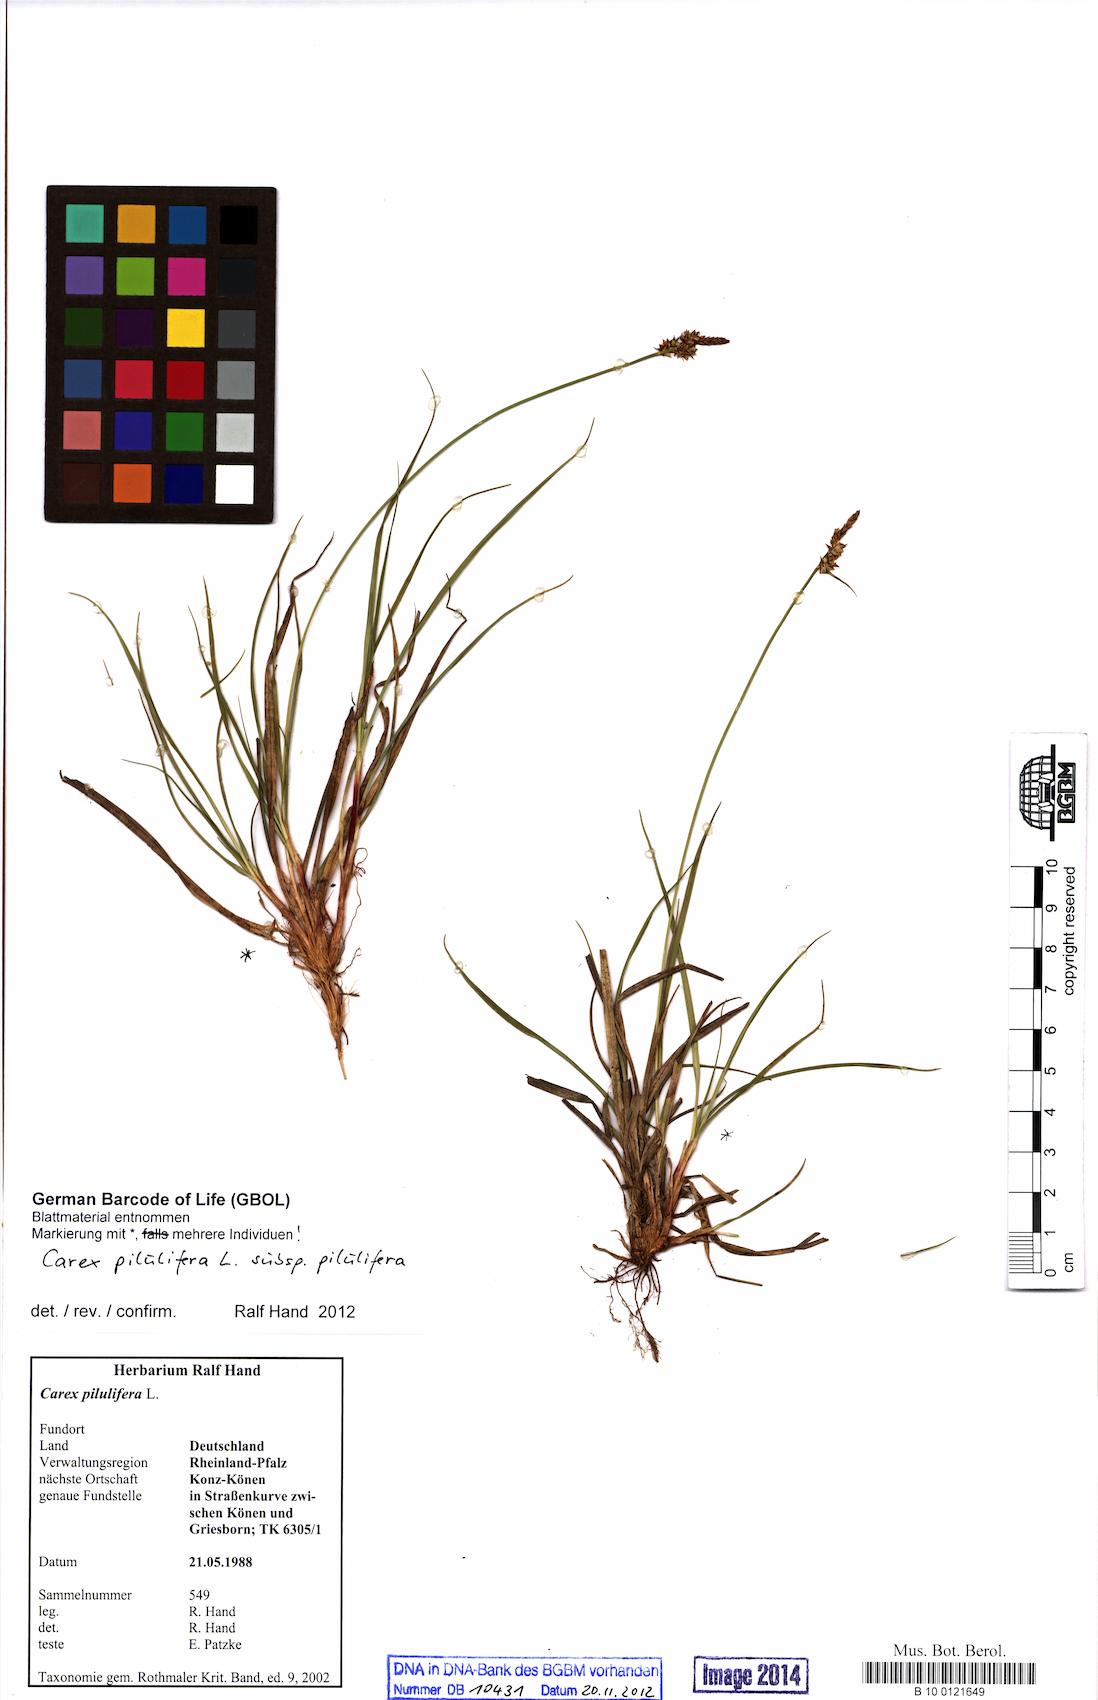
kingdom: Plantae
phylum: Tracheophyta
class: Liliopsida
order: Poales
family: Cyperaceae
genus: Carex
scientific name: Carex pilulifera
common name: Pill sedge
